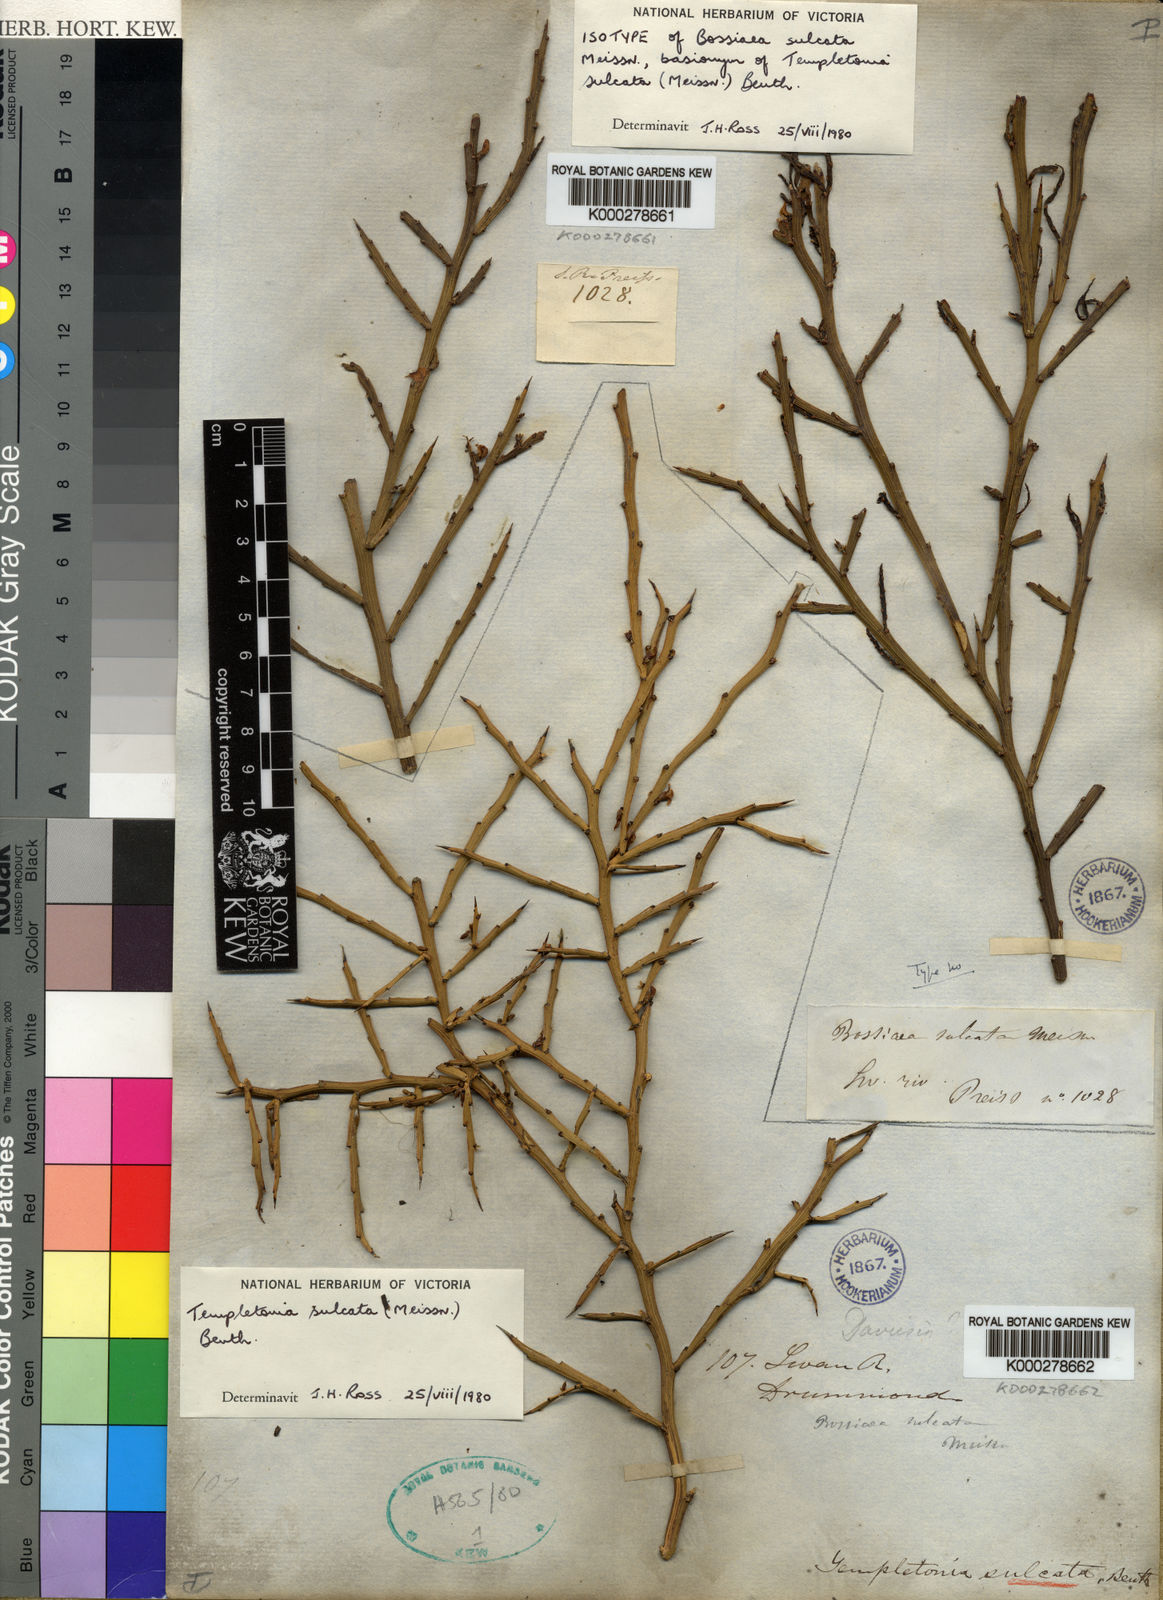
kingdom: Plantae
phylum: Tracheophyta
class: Magnoliopsida
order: Fabales
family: Fabaceae
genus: Templetonia
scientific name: Templetonia sulcata
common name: Flat mallee-pea
